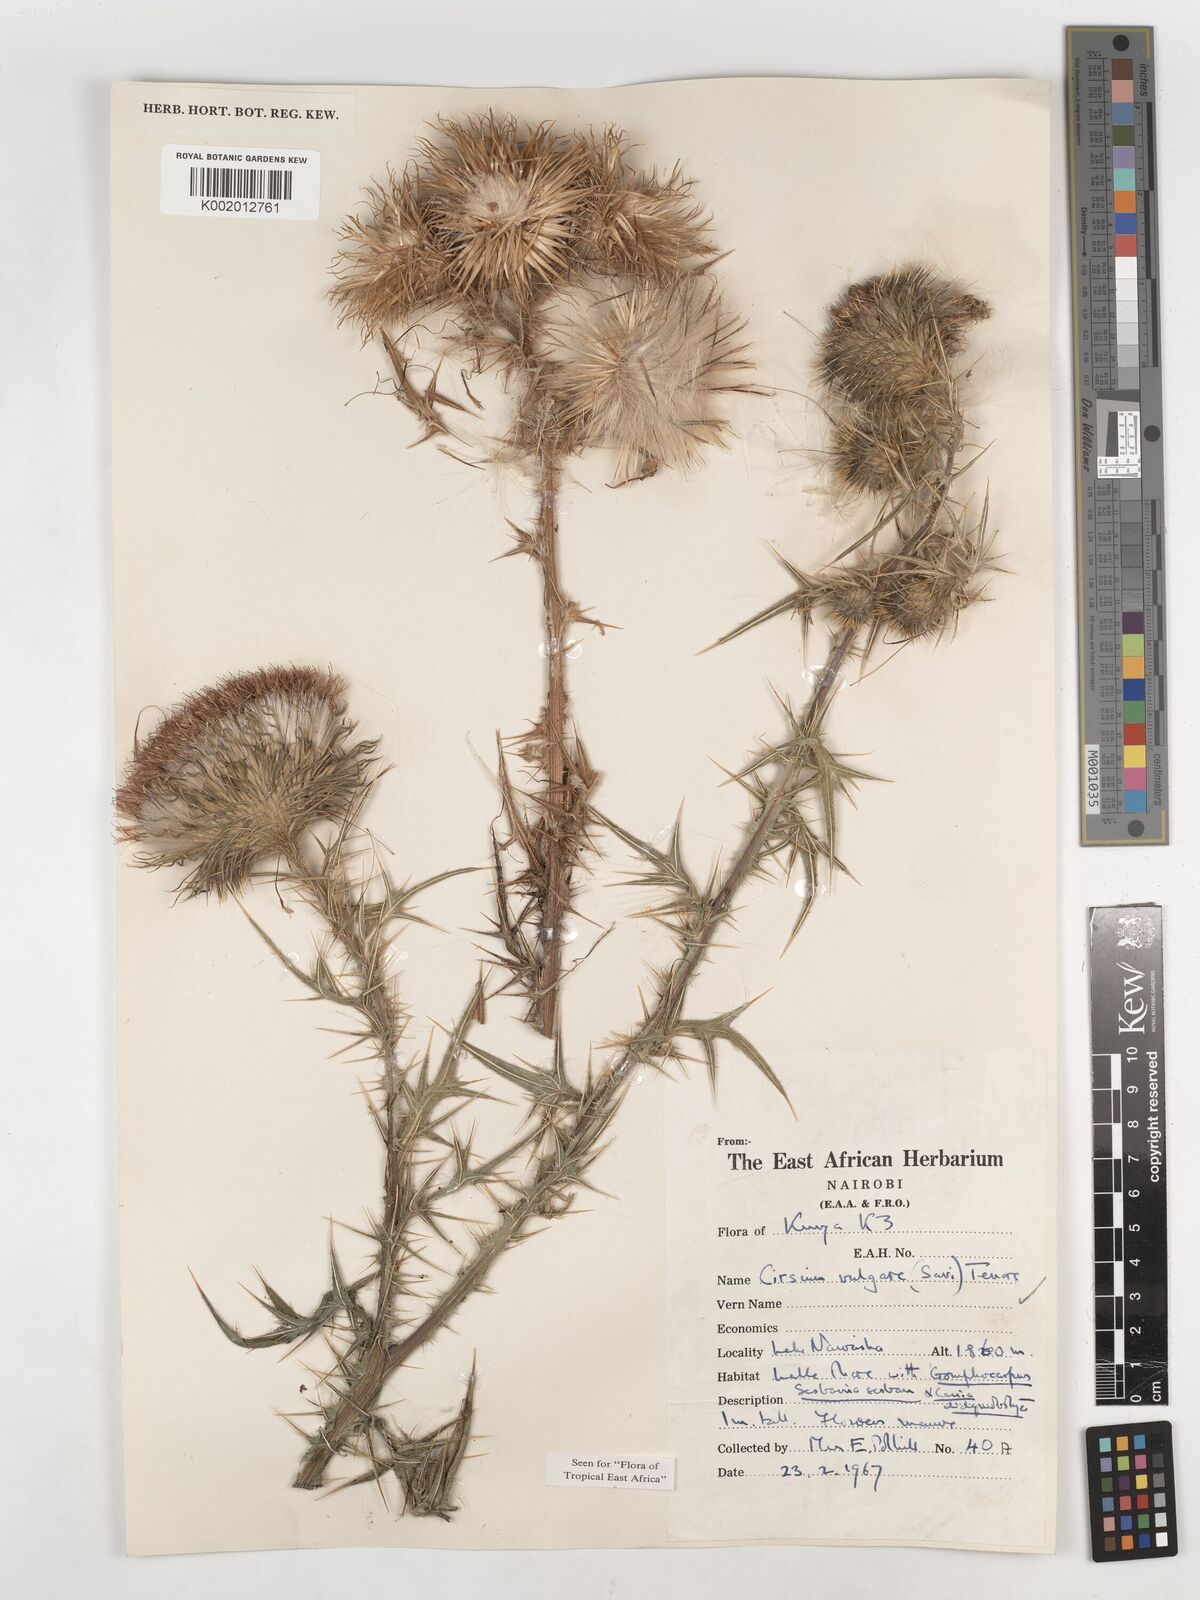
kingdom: Plantae
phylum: Tracheophyta
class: Magnoliopsida
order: Asterales
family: Asteraceae
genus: Cirsium
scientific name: Cirsium vulgare
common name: Bull thistle
